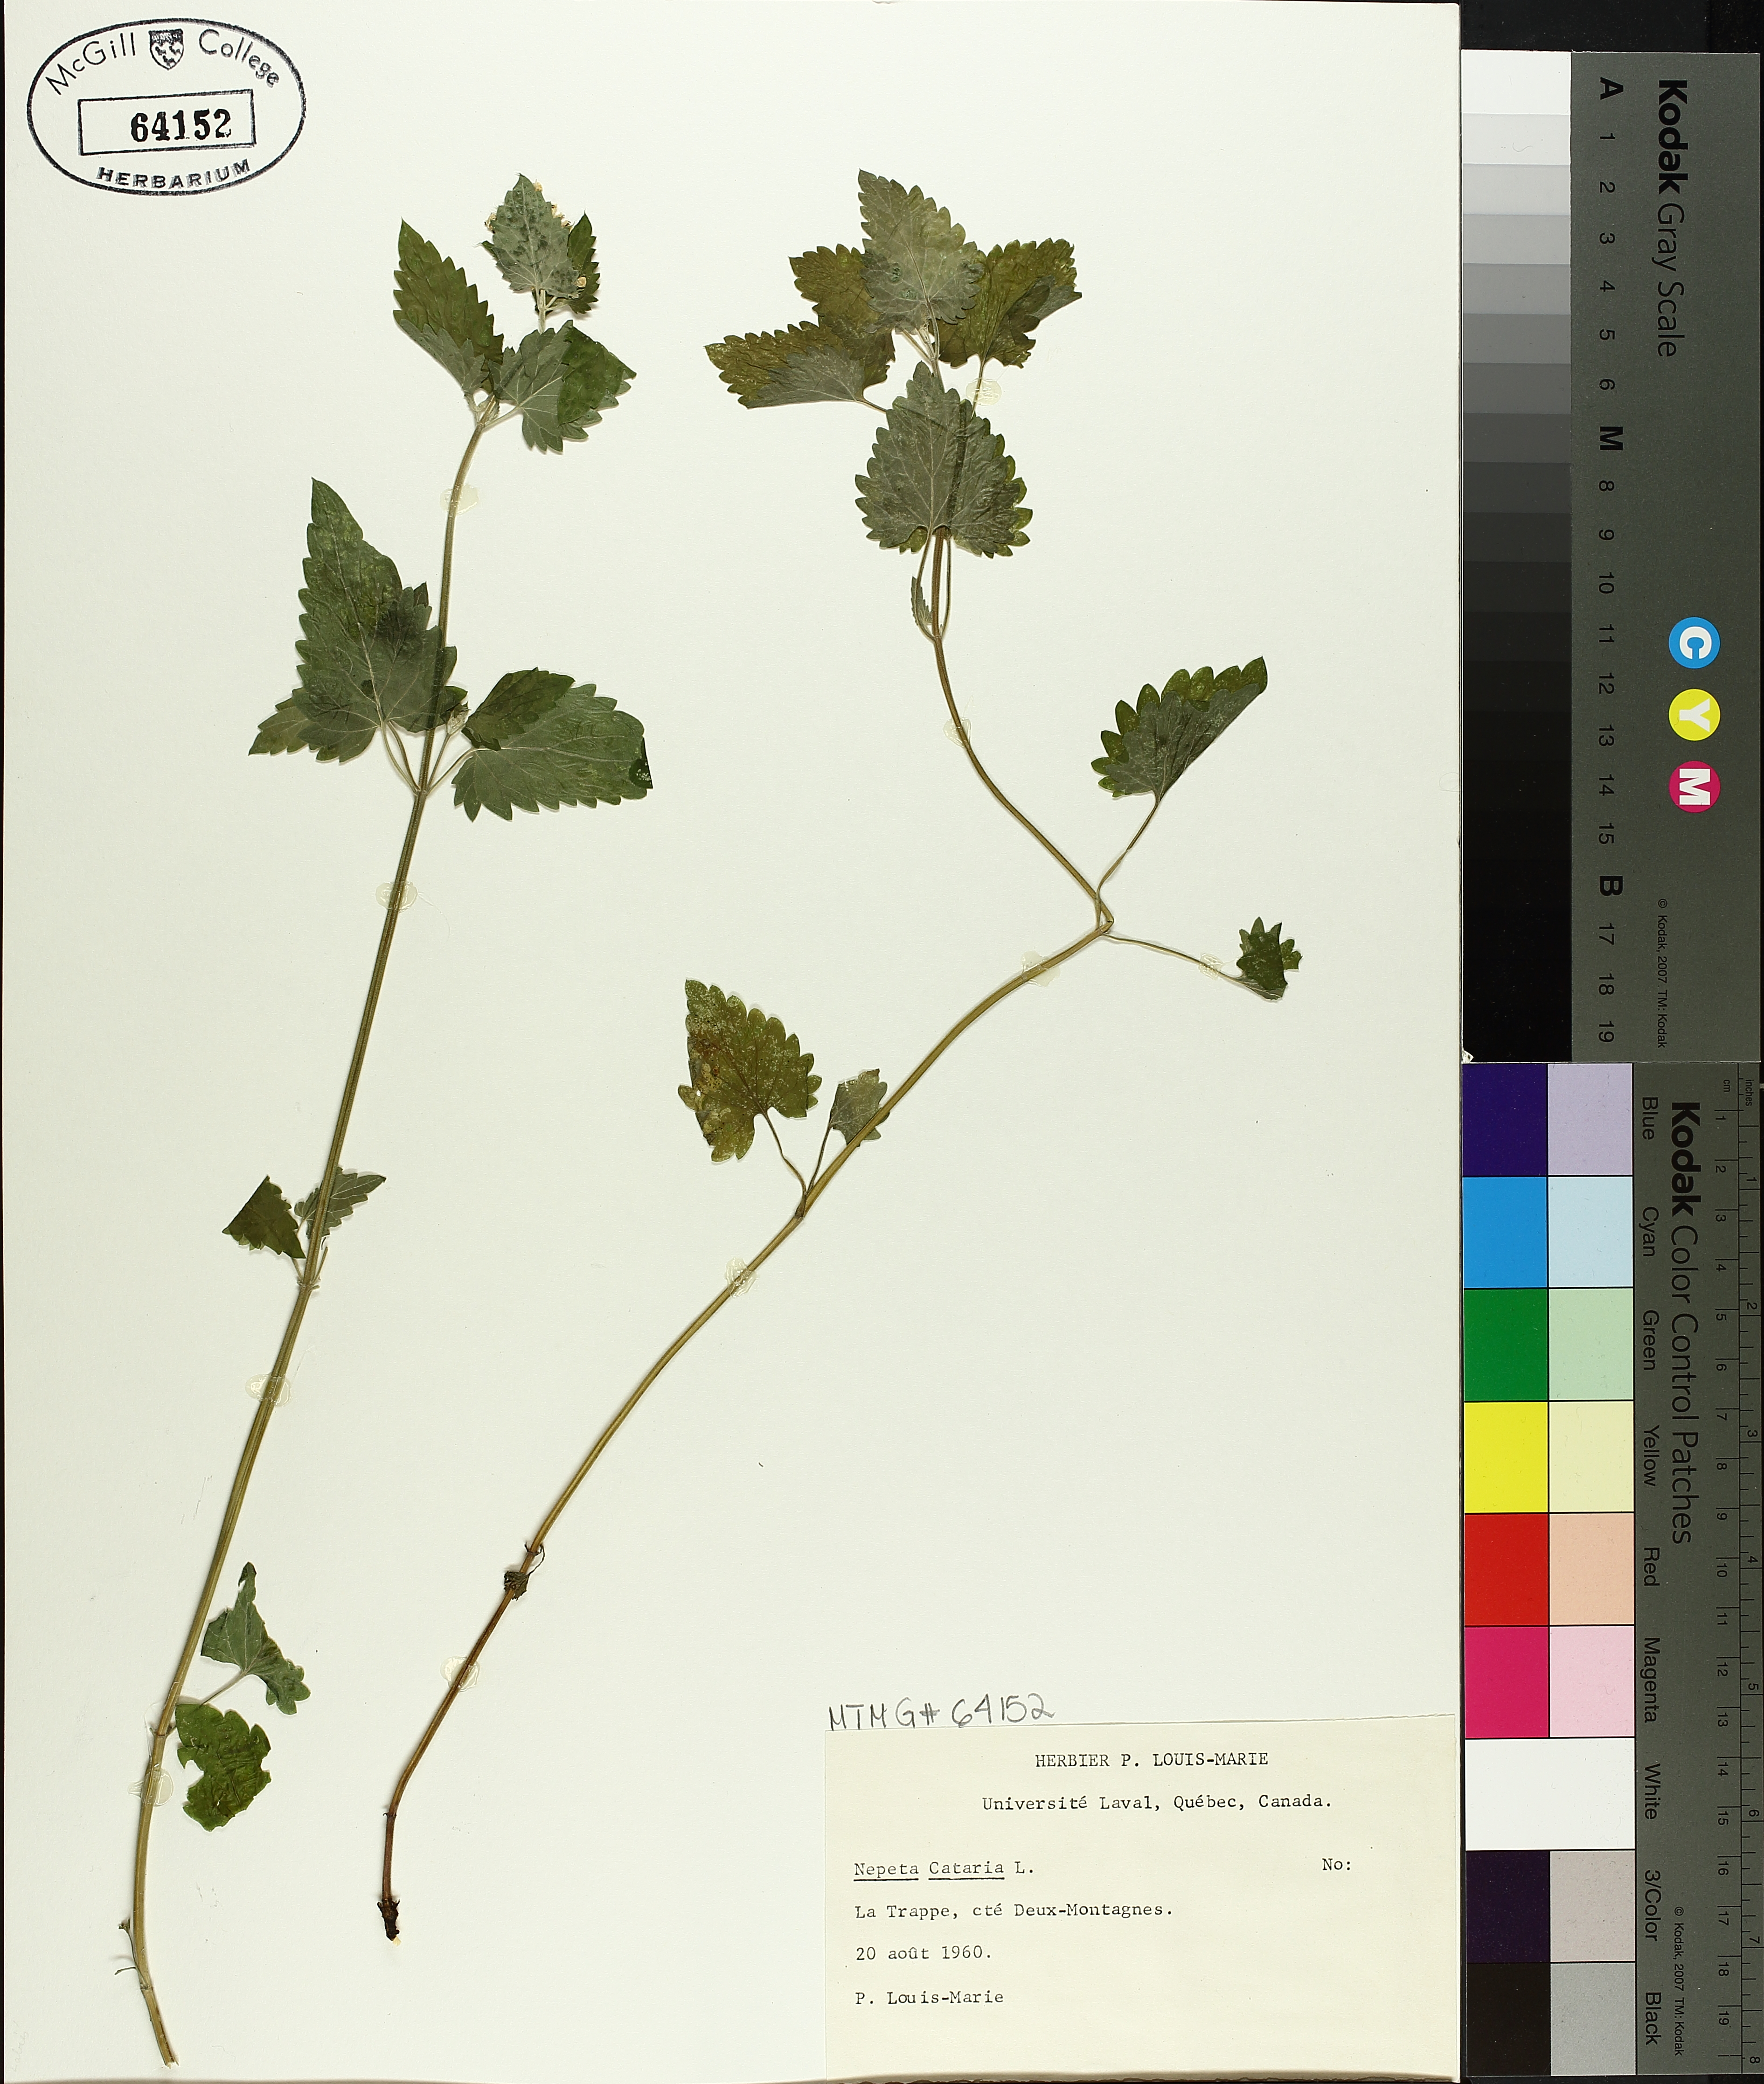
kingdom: Plantae
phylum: Tracheophyta
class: Magnoliopsida
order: Lamiales
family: Lamiaceae
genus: Nepeta
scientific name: Nepeta cataria
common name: Catnip
